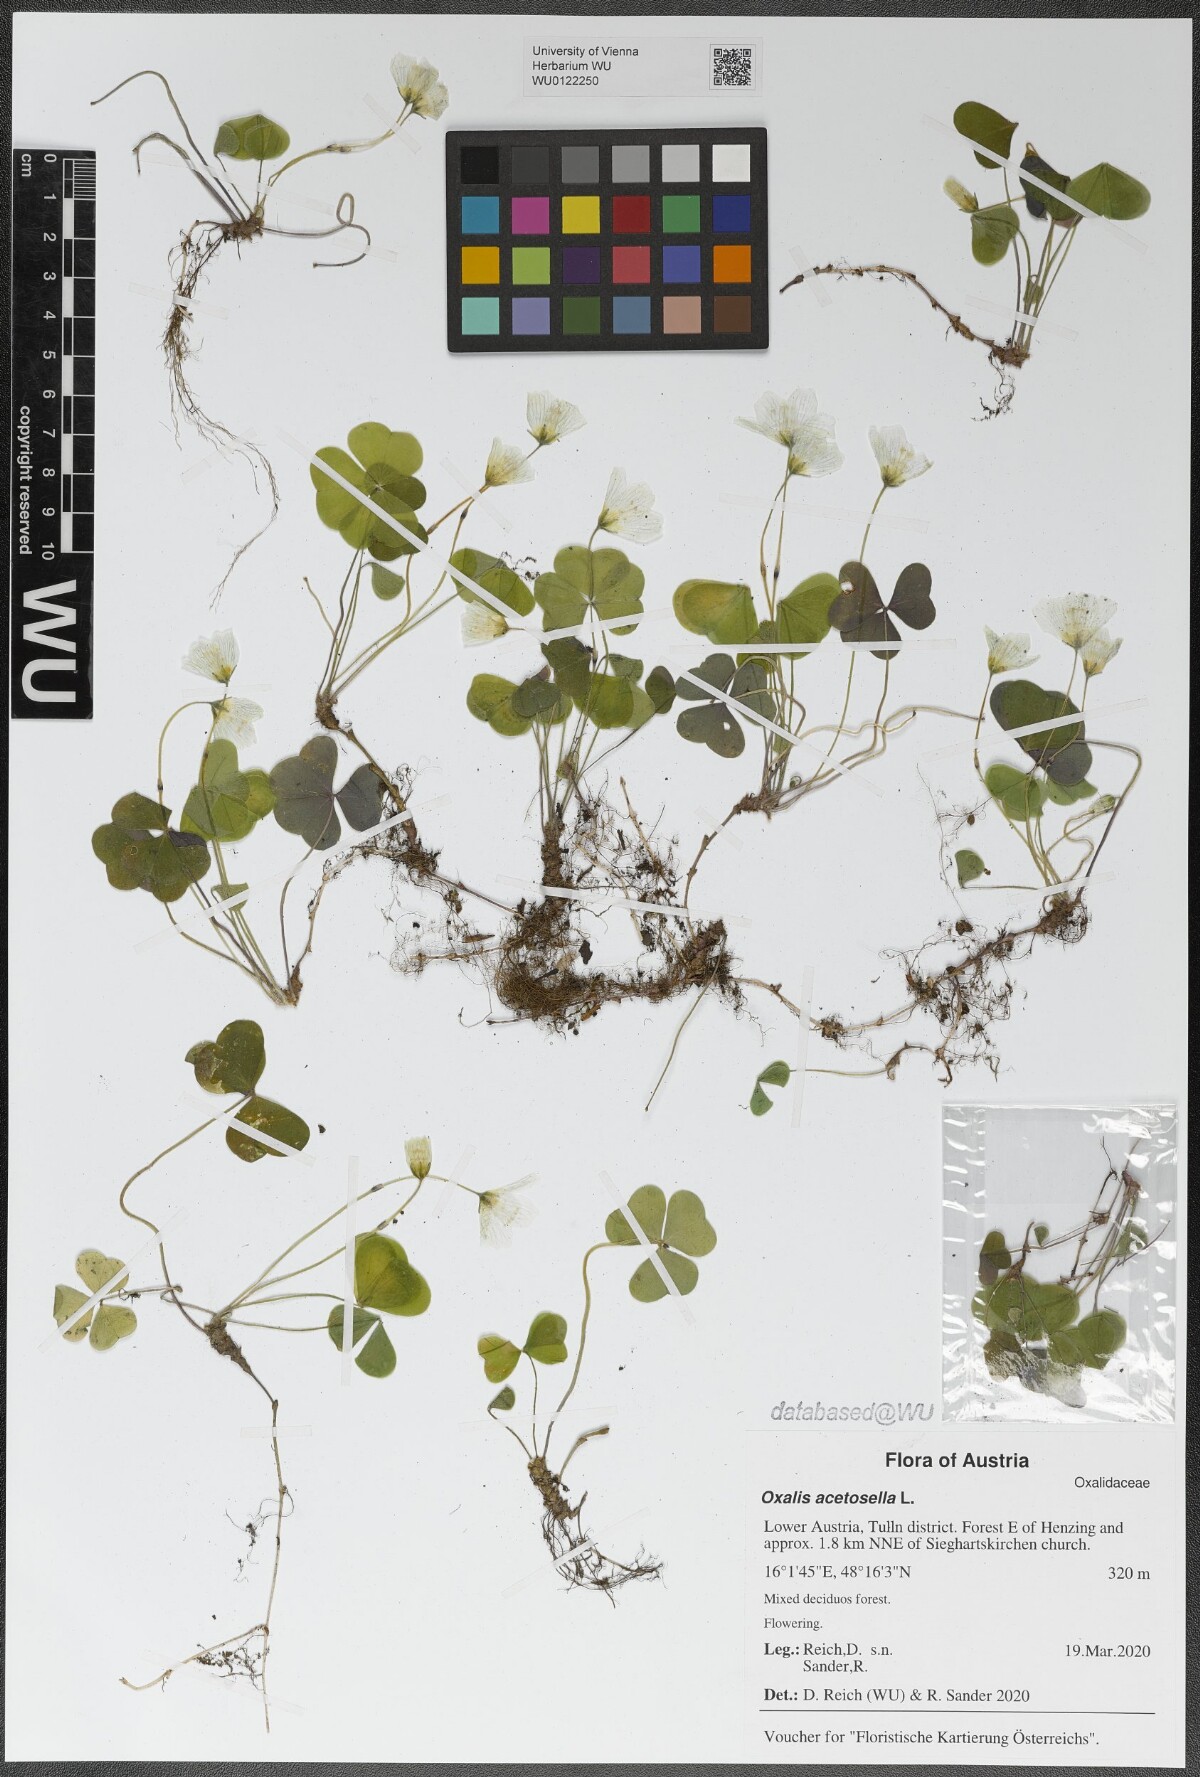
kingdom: Plantae
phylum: Tracheophyta
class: Magnoliopsida
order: Oxalidales
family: Oxalidaceae
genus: Oxalis
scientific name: Oxalis acetosella
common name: Wood-sorrel
